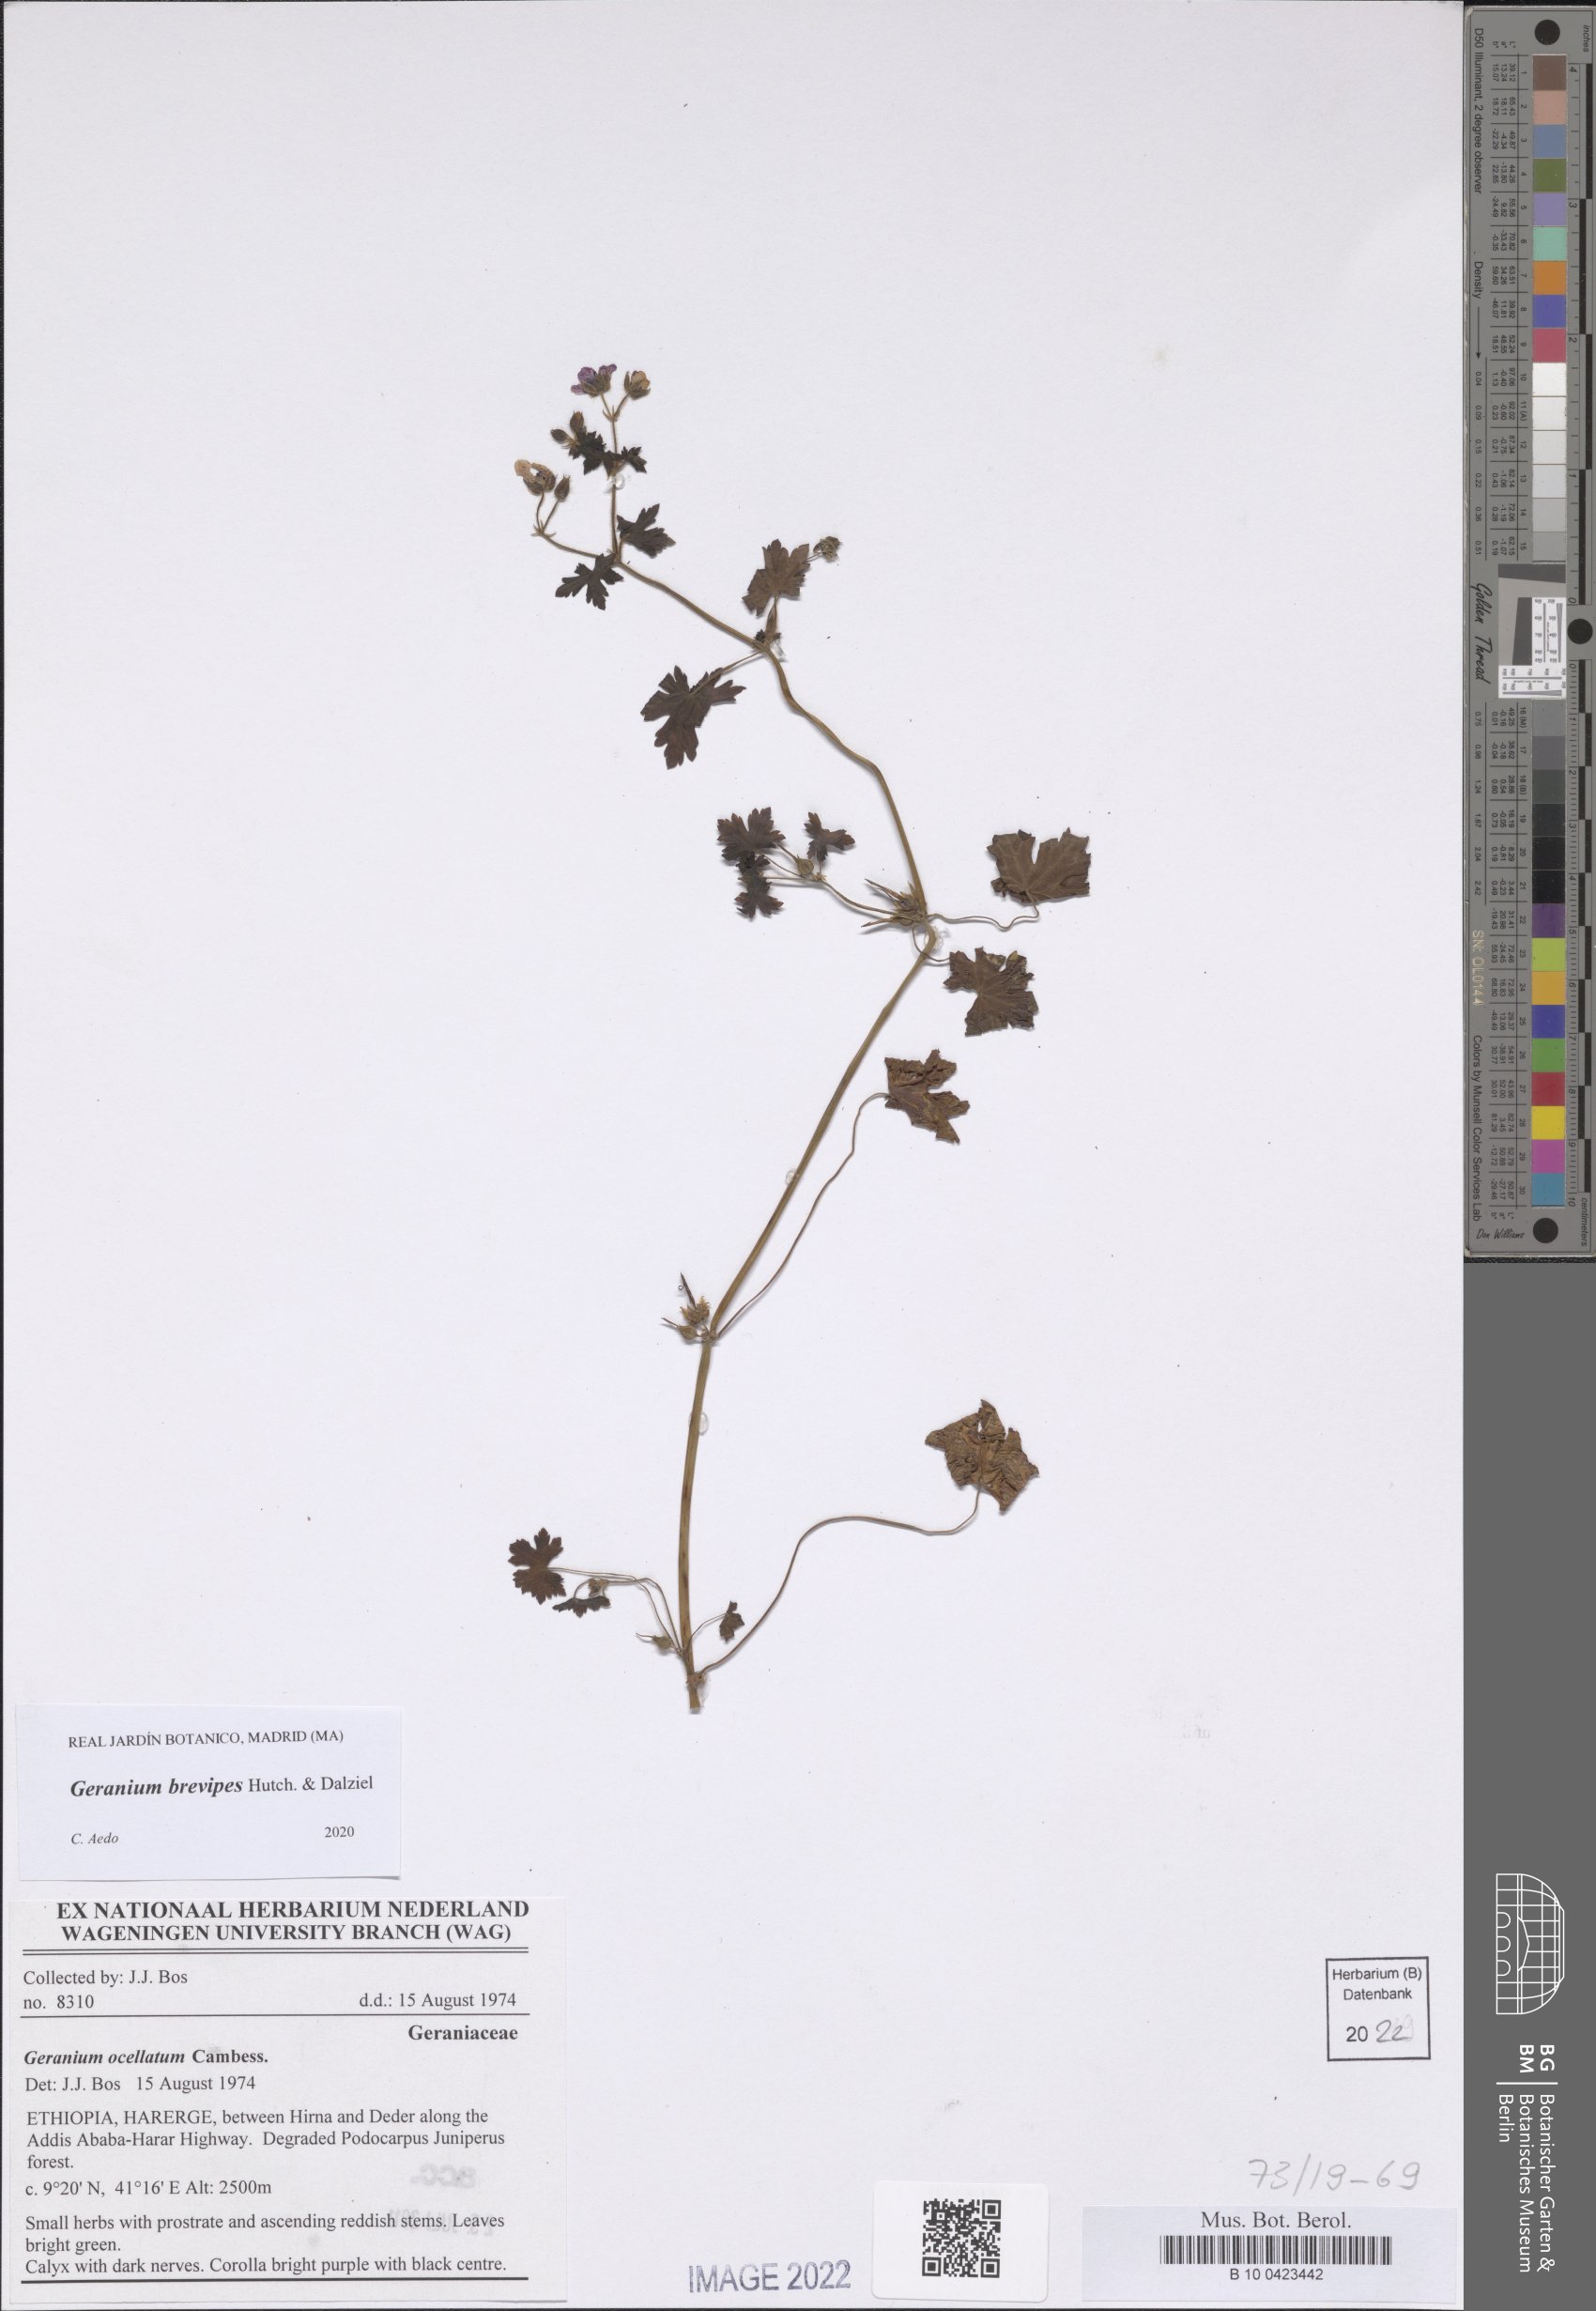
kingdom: Plantae
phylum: Tracheophyta
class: Magnoliopsida
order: Geraniales
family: Geraniaceae
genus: Geranium
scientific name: Geranium brevipes
